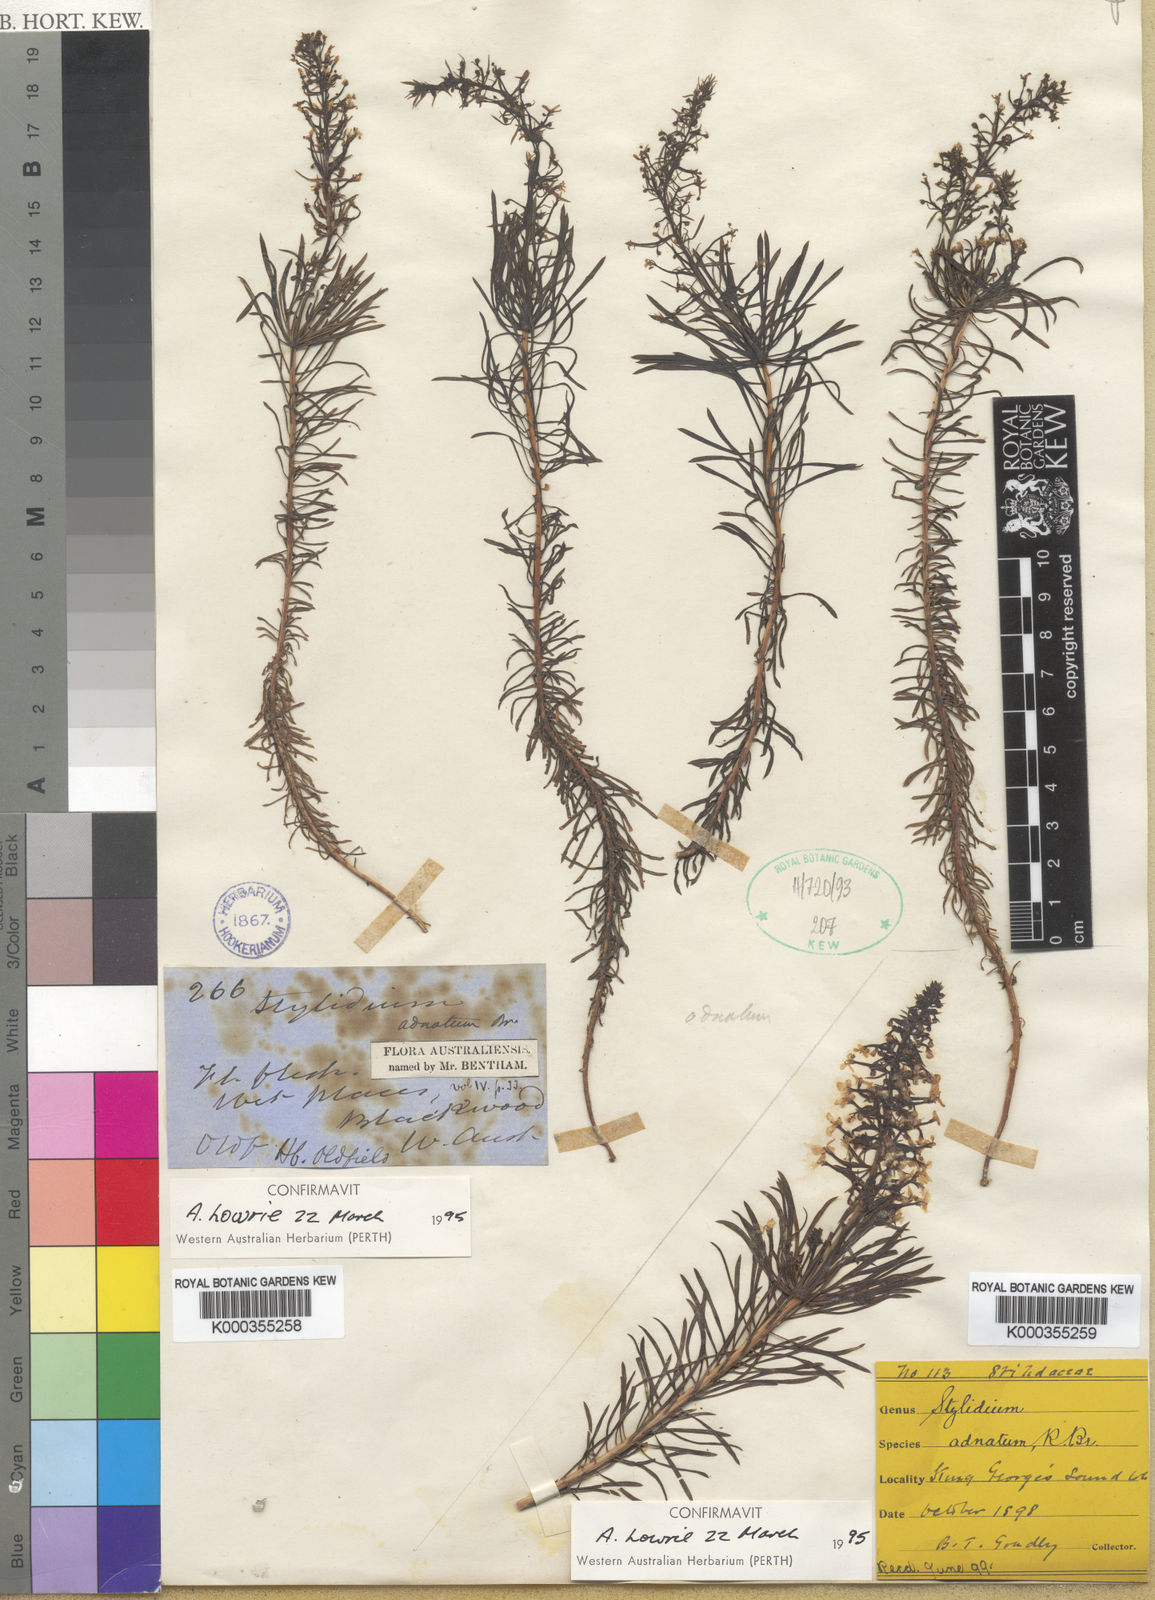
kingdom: Plantae
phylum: Tracheophyta
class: Magnoliopsida
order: Asterales
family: Stylidiaceae
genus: Stylidium
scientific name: Stylidium adnatum
